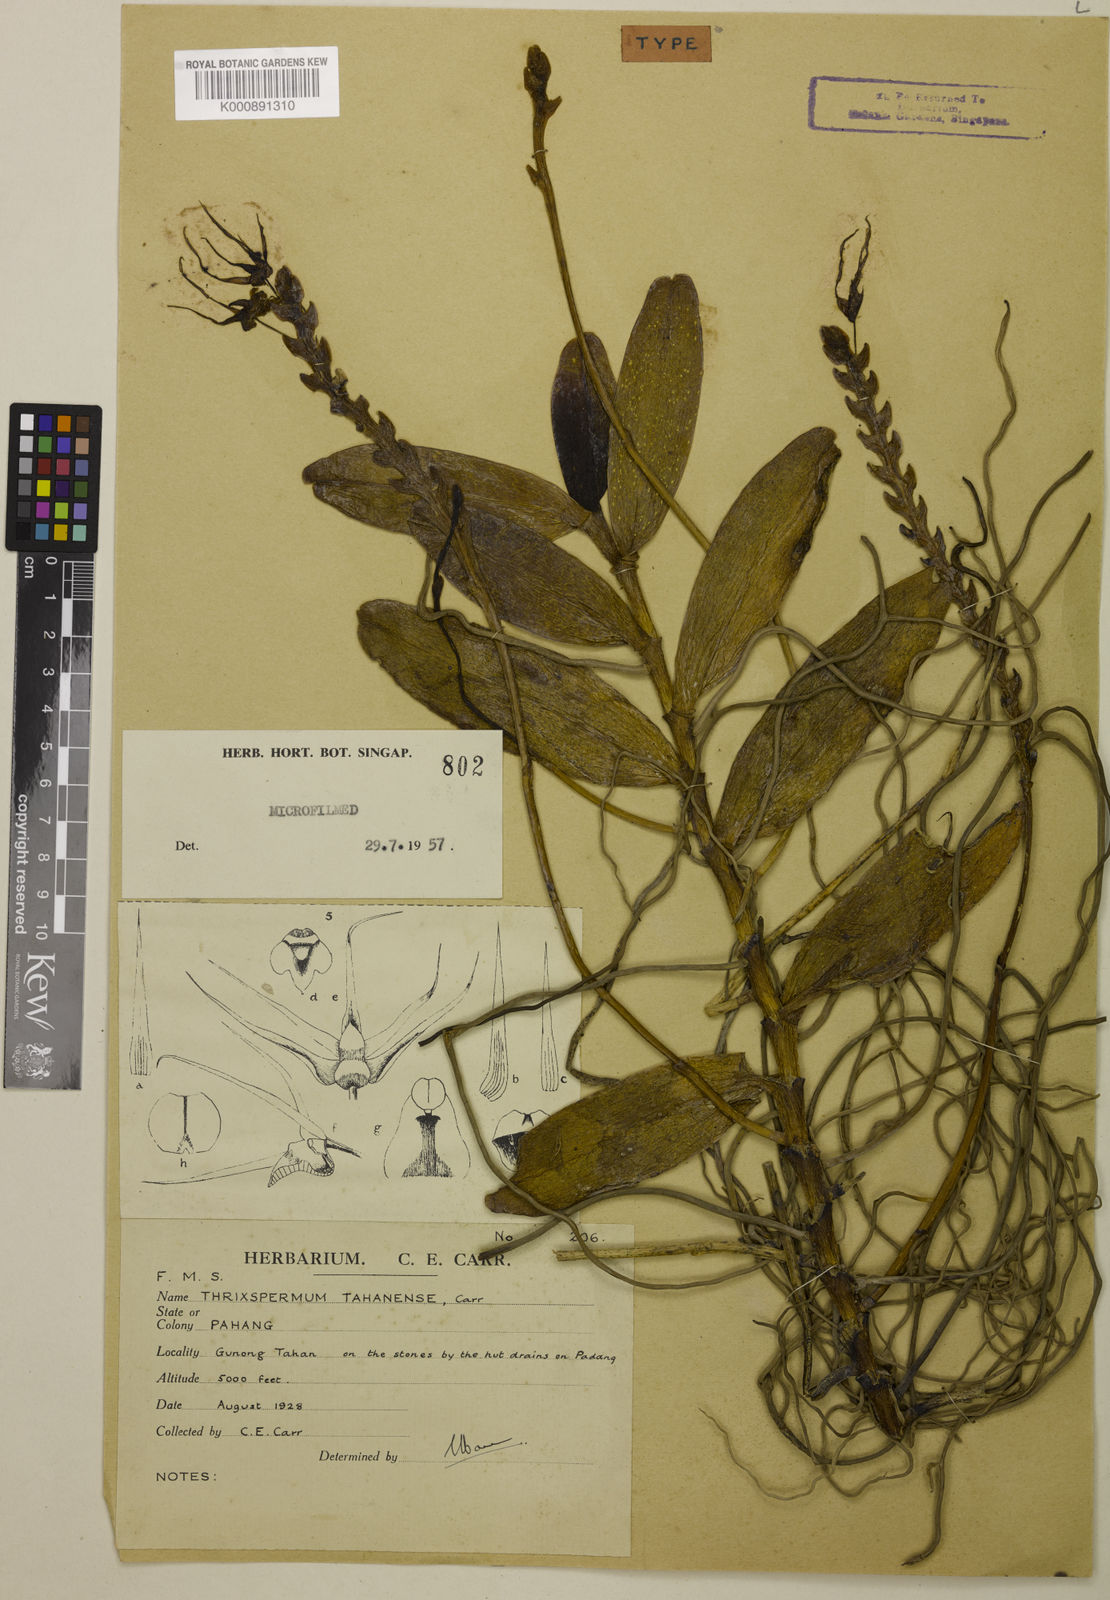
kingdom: Plantae
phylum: Tracheophyta
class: Liliopsida
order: Asparagales
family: Orchidaceae
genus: Thrixspermum
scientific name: Thrixspermum sarcophyllum
